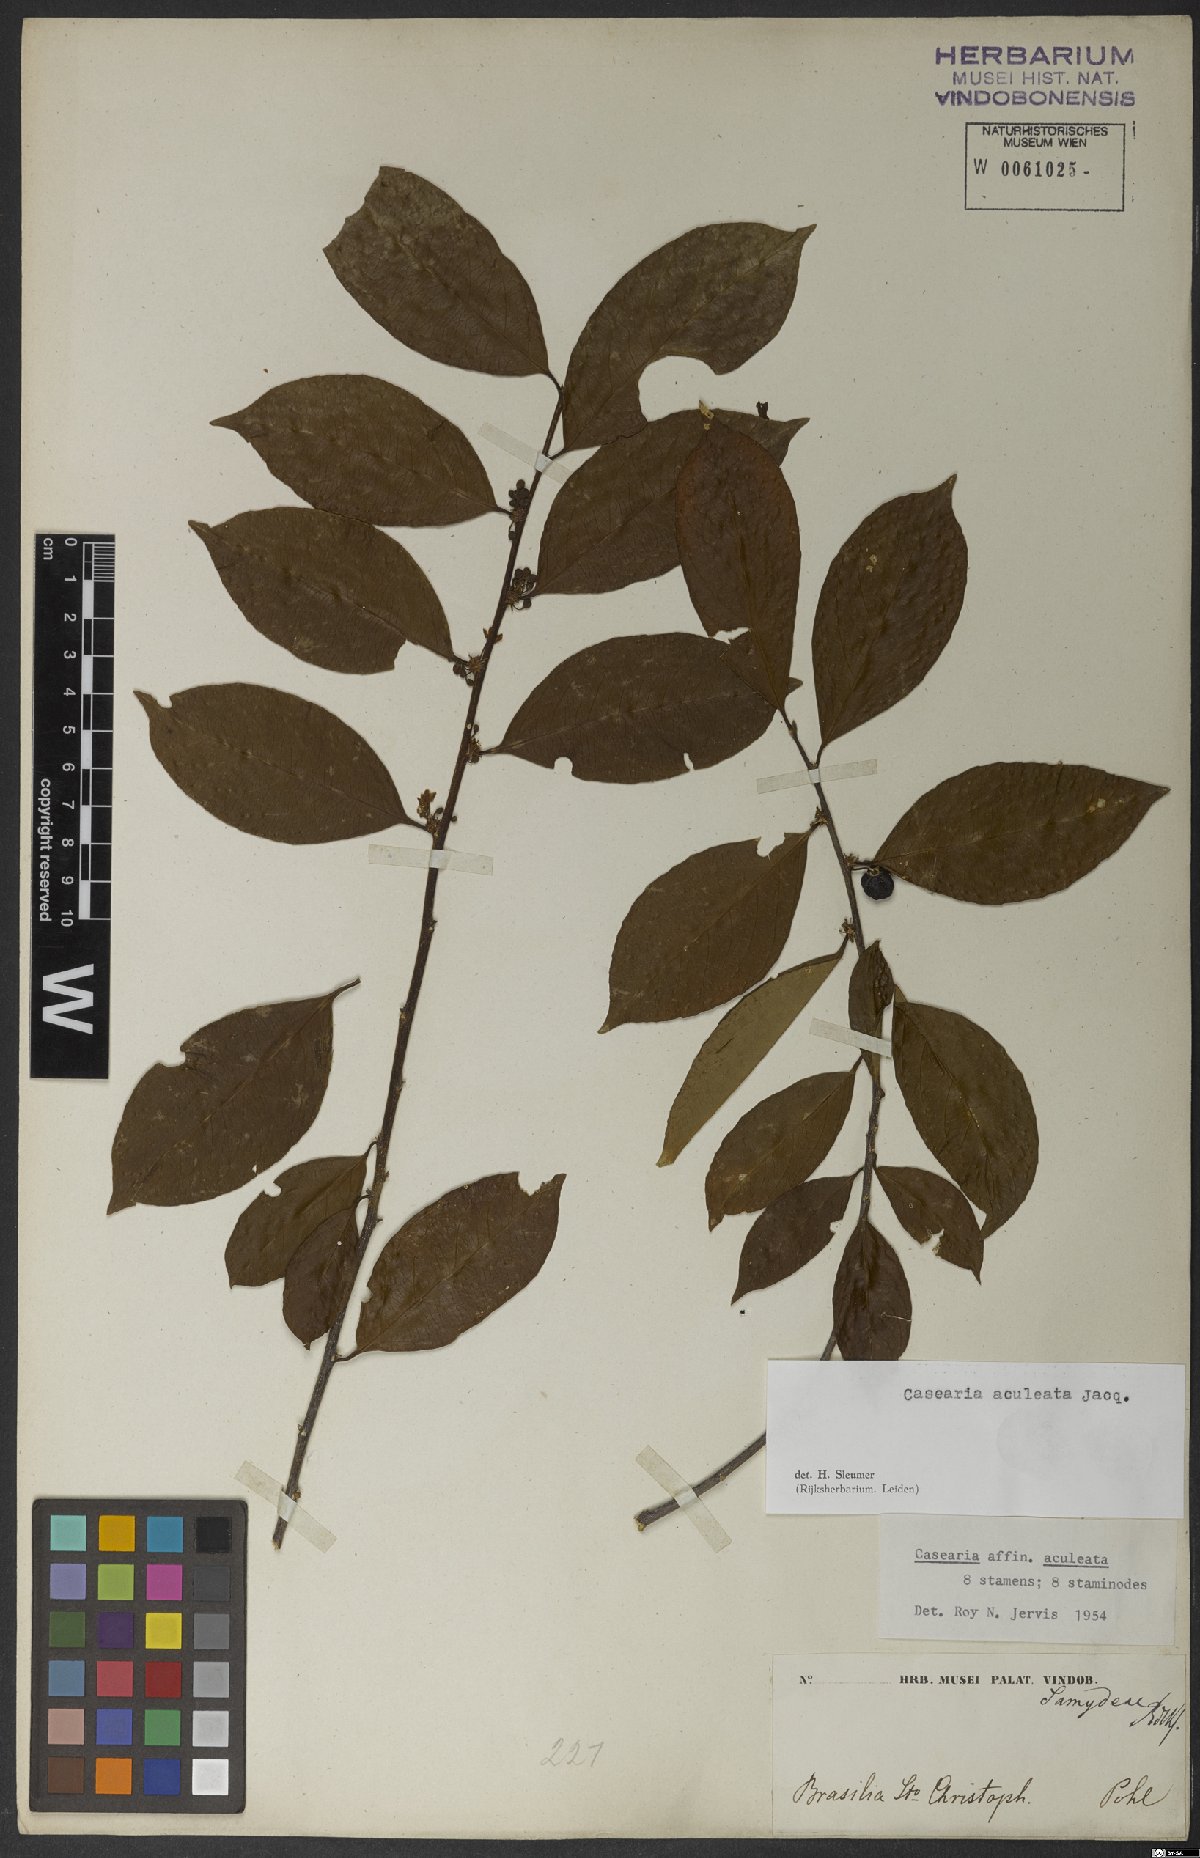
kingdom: Plantae
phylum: Tracheophyta
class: Magnoliopsida
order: Malpighiales
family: Salicaceae
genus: Casearia
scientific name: Casearia aculeata
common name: Cockspur
